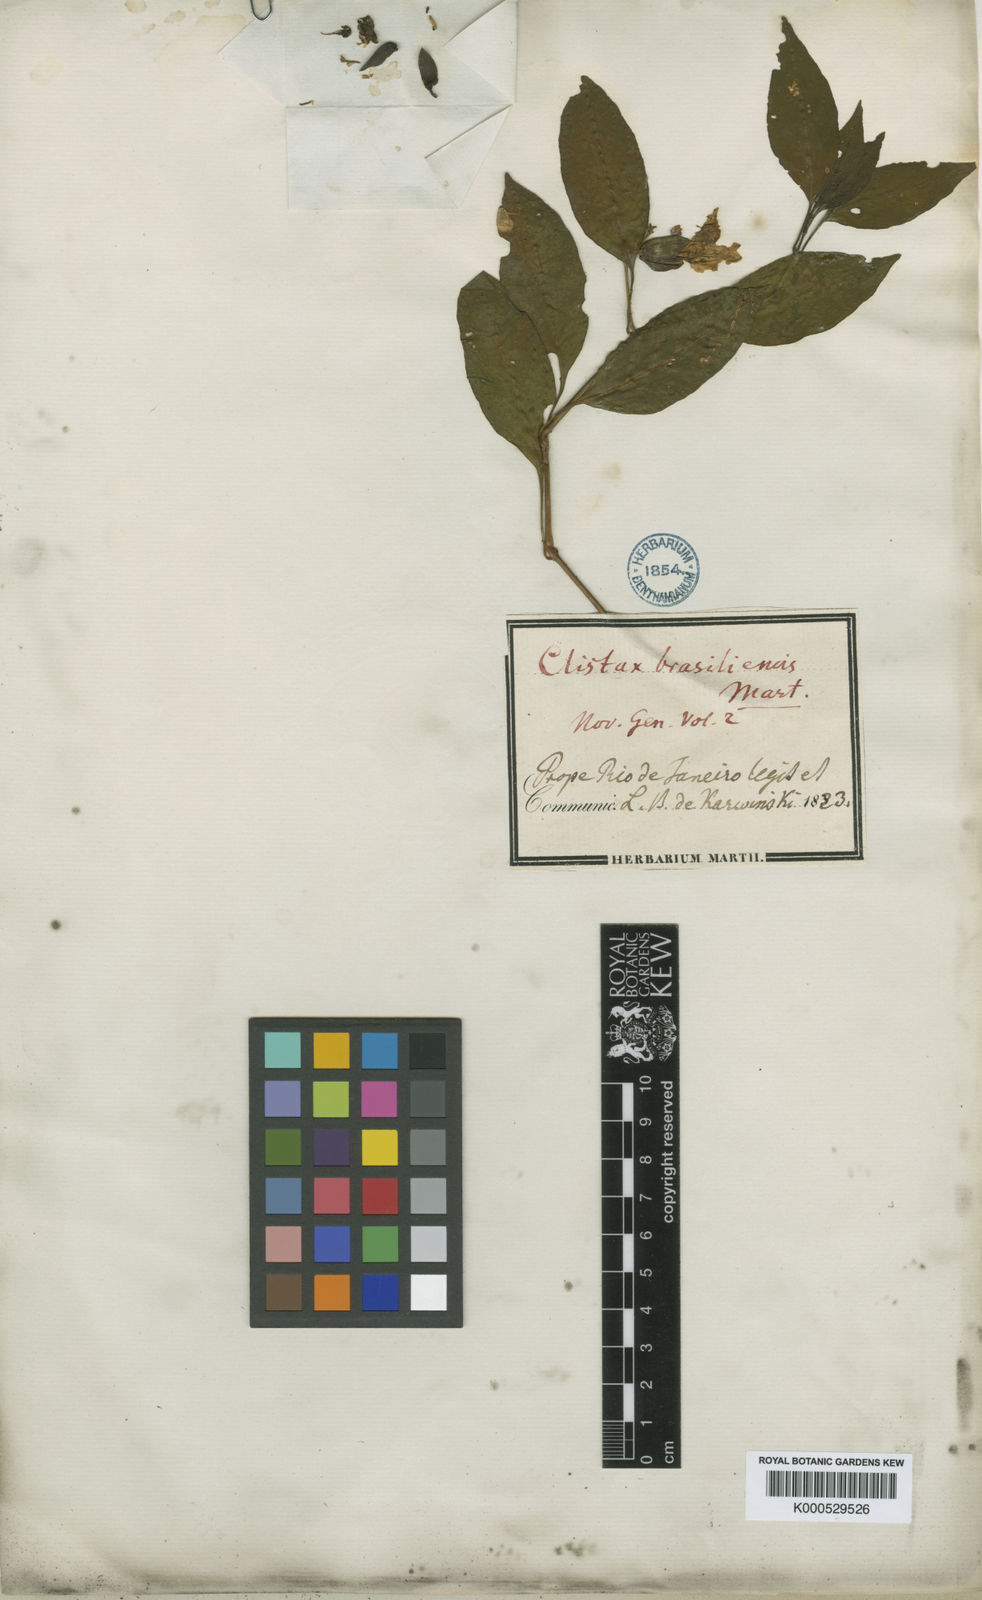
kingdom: Plantae
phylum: Tracheophyta
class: Magnoliopsida
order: Lamiales
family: Acanthaceae
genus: Clistax
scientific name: Clistax brasiliensis
